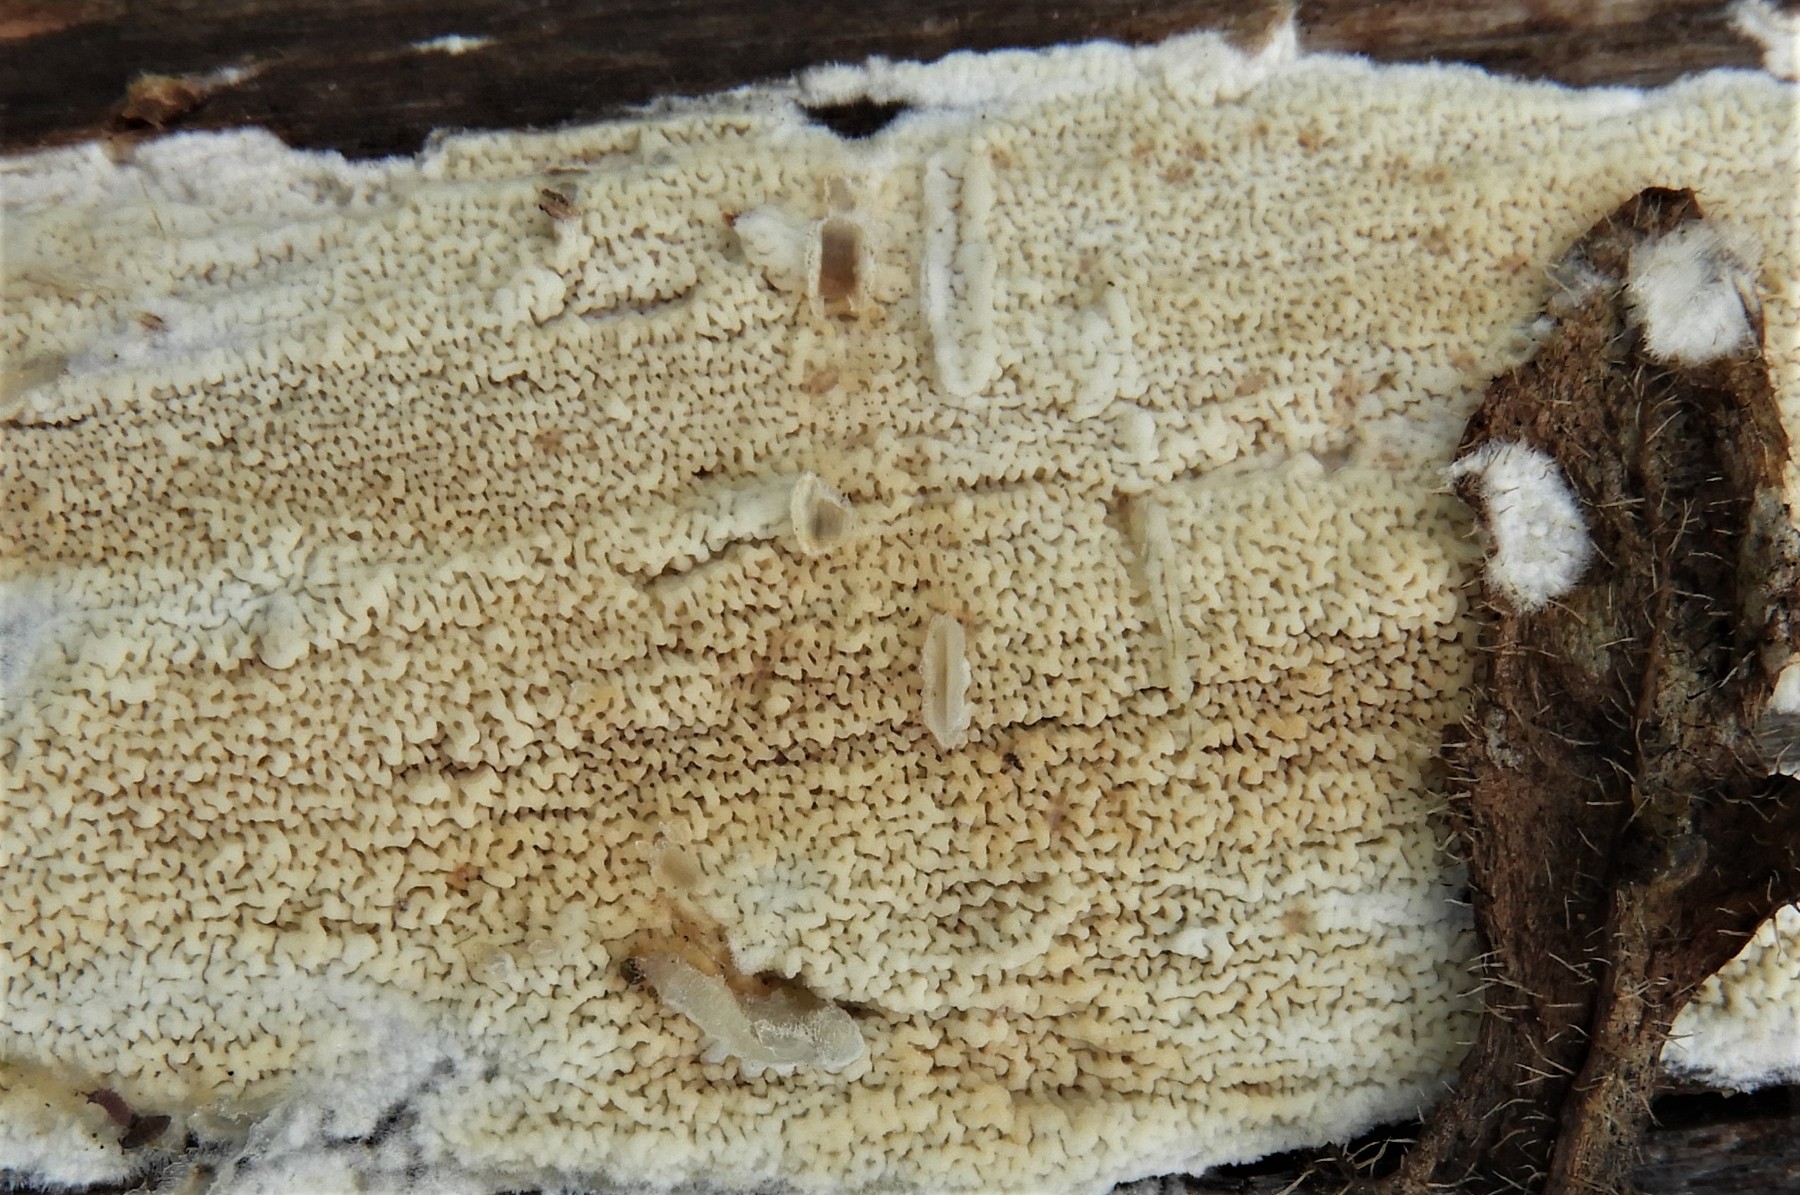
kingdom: Fungi
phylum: Basidiomycota
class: Agaricomycetes
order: Corticiales
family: Corticiaceae
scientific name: Corticiaceae
